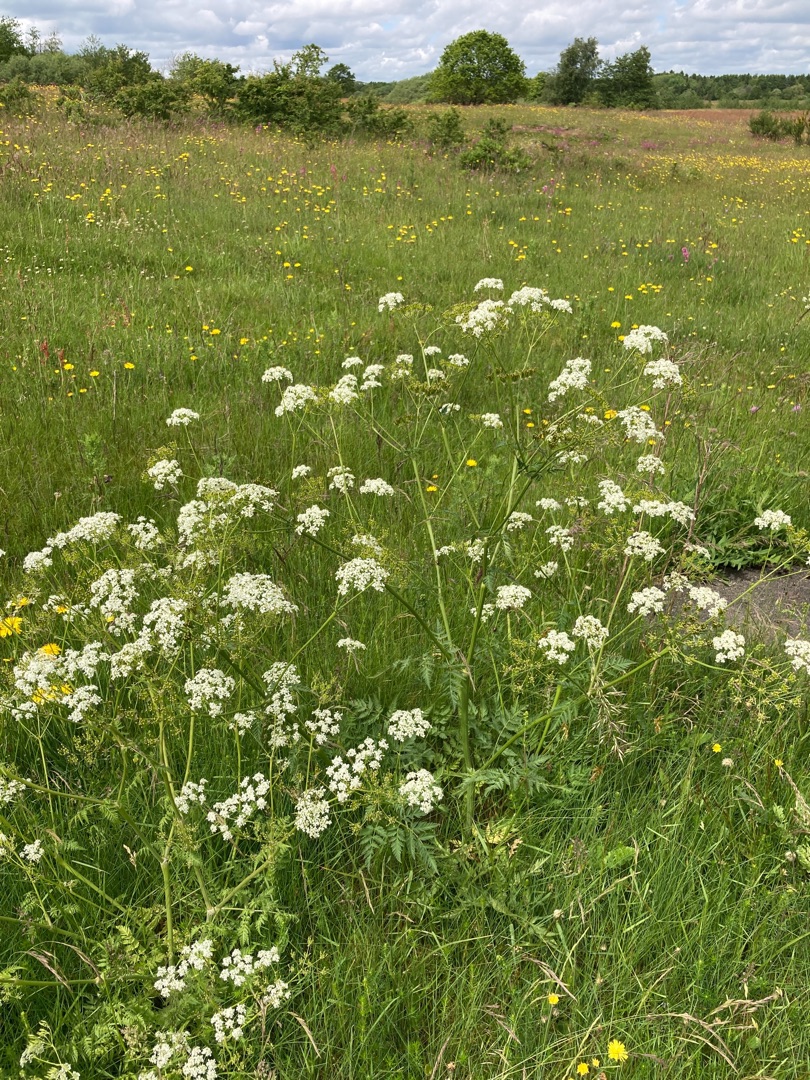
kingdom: Plantae
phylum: Tracheophyta
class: Magnoliopsida
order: Apiales
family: Apiaceae
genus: Anthriscus
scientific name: Anthriscus sylvestris
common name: Vild kørvel
